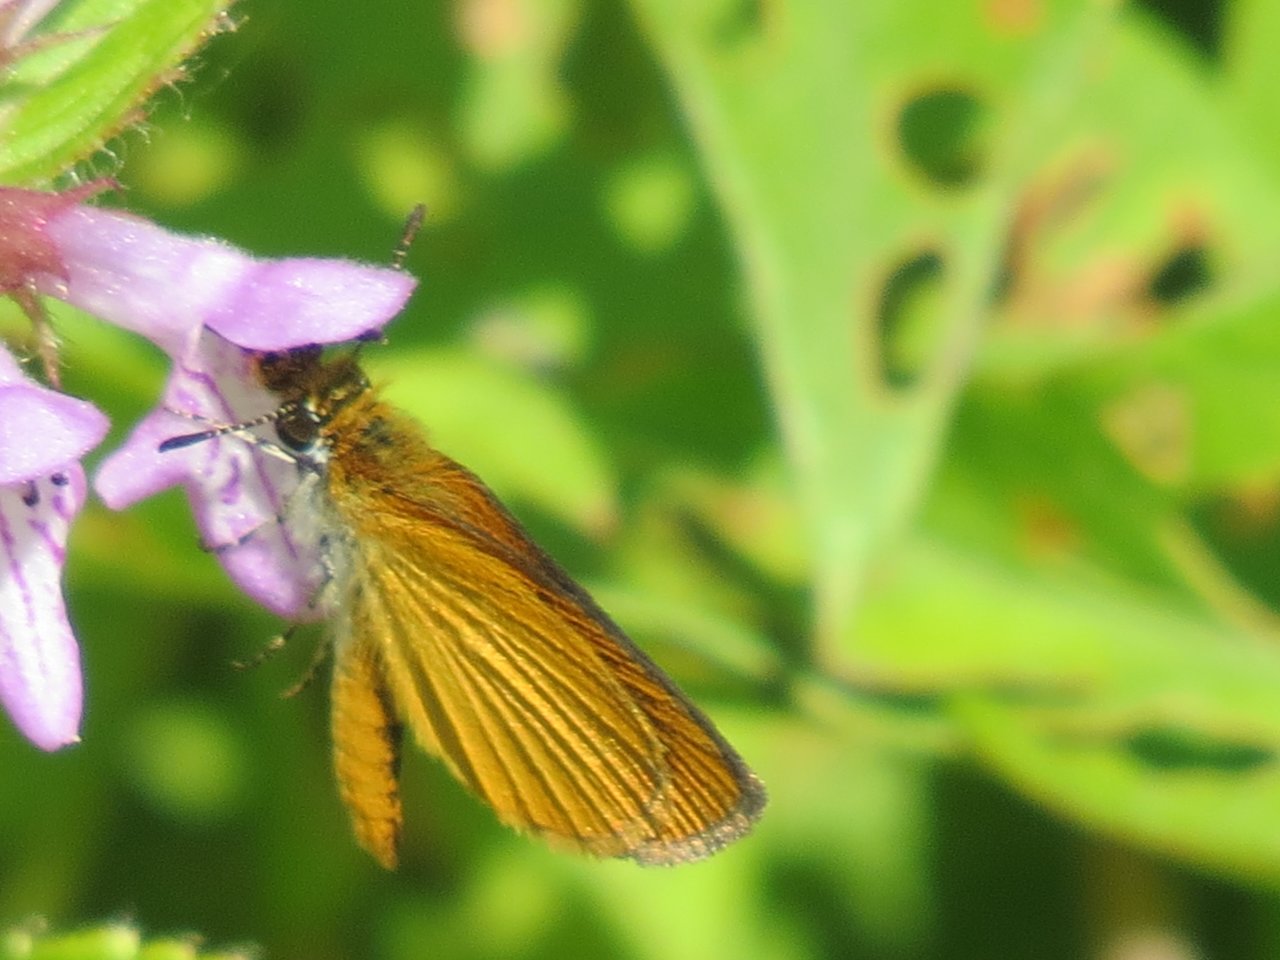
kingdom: Animalia
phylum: Arthropoda
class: Insecta
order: Lepidoptera
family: Hesperiidae
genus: Ancyloxypha
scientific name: Ancyloxypha numitor
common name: Least Skipper
